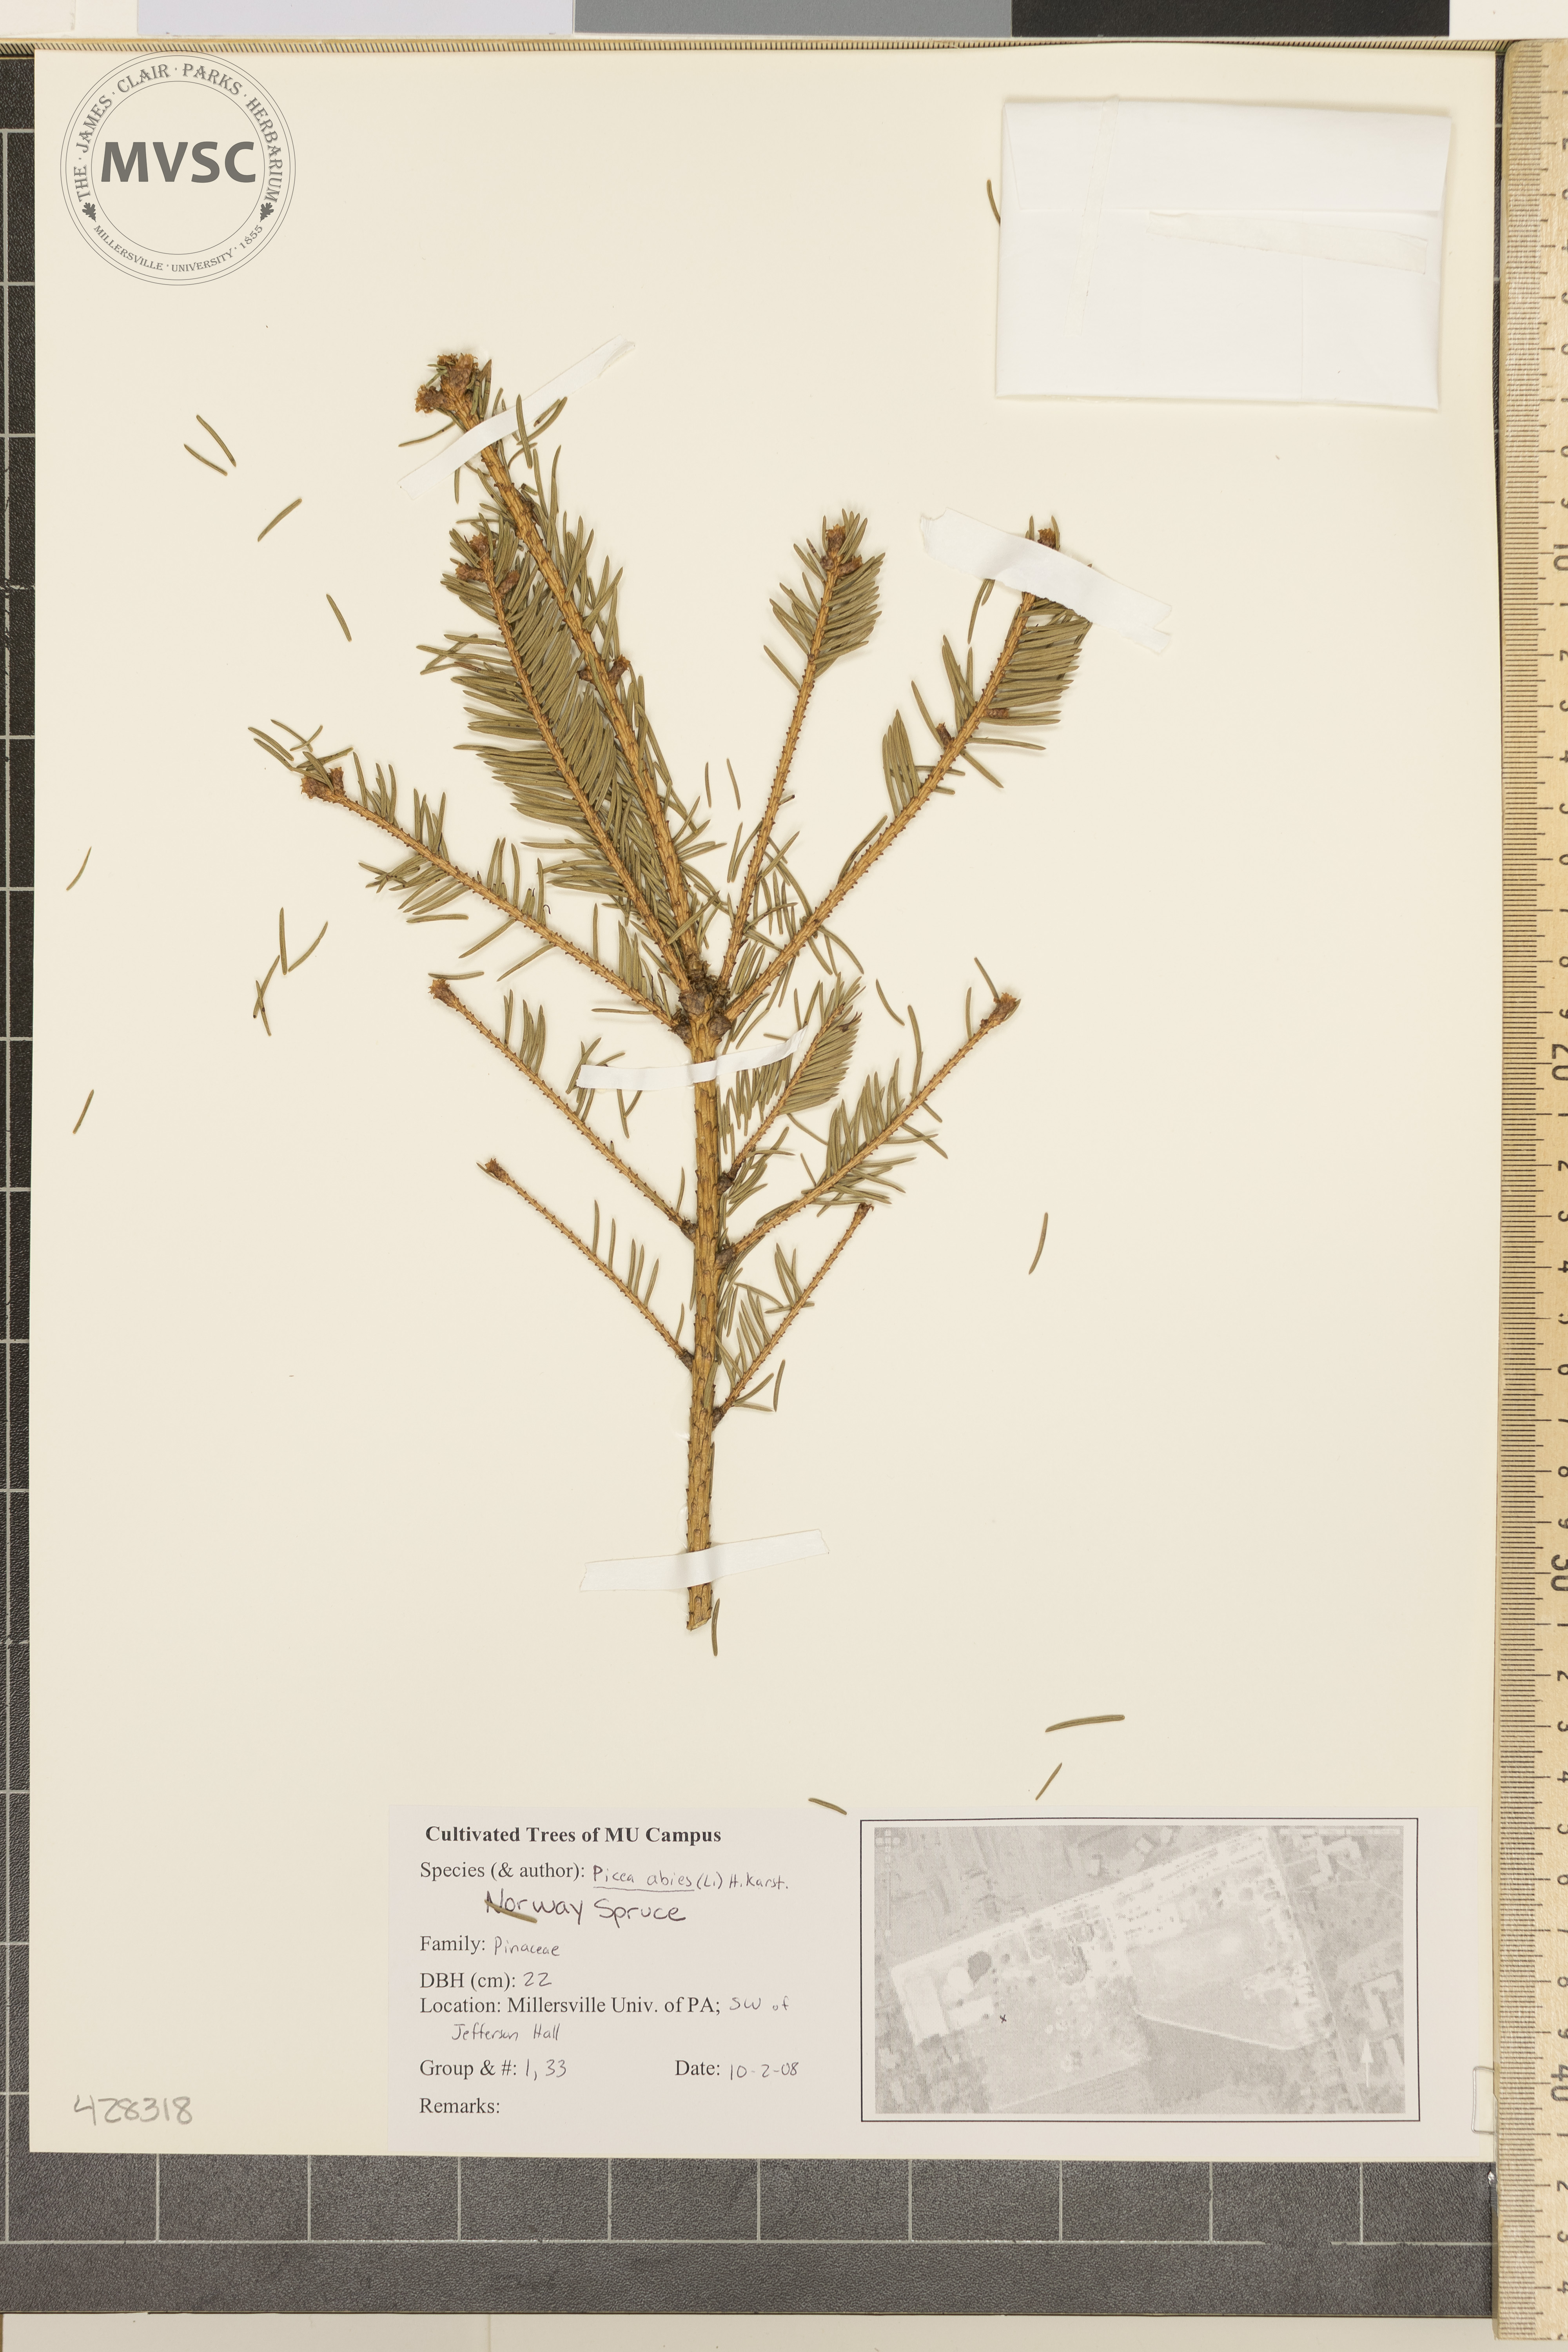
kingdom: Plantae
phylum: Tracheophyta
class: Pinopsida
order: Pinales
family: Pinaceae
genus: Picea
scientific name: Picea abies
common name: Norway Spruce
